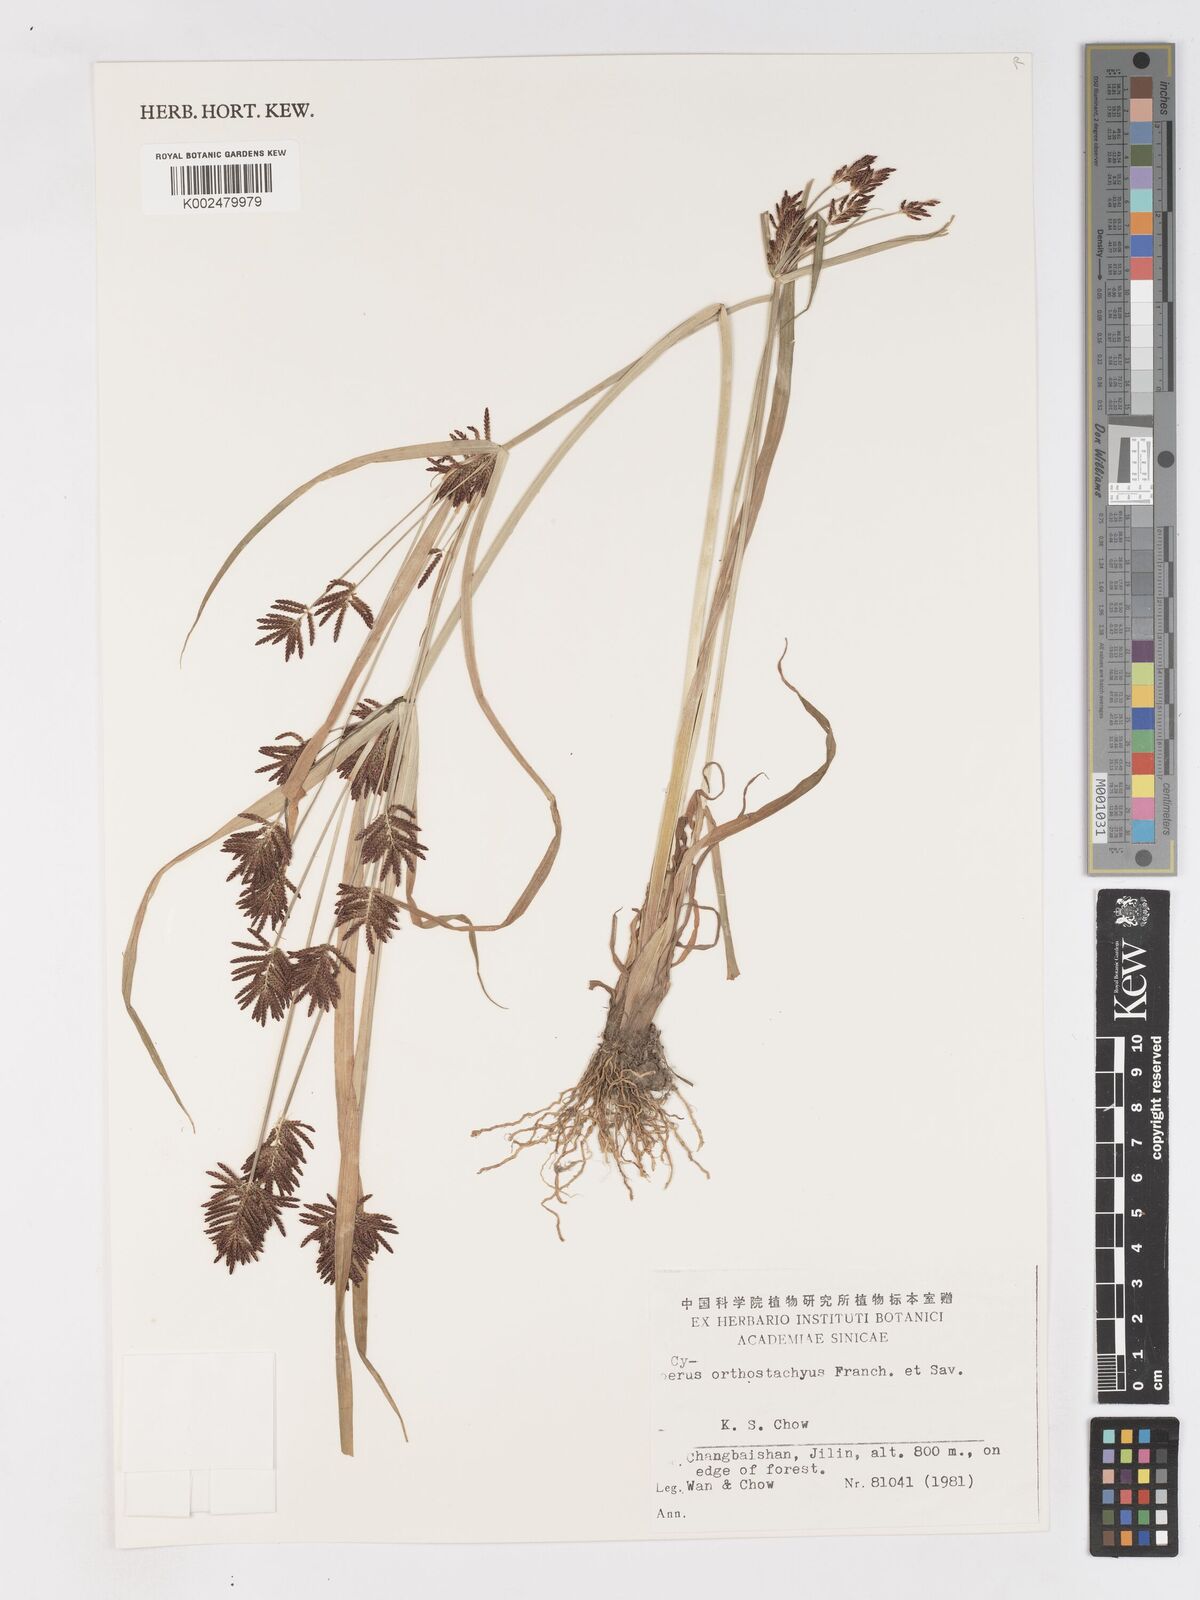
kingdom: Plantae
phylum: Tracheophyta
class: Liliopsida
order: Poales
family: Cyperaceae
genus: Cyperus
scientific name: Cyperus orthostachyus
